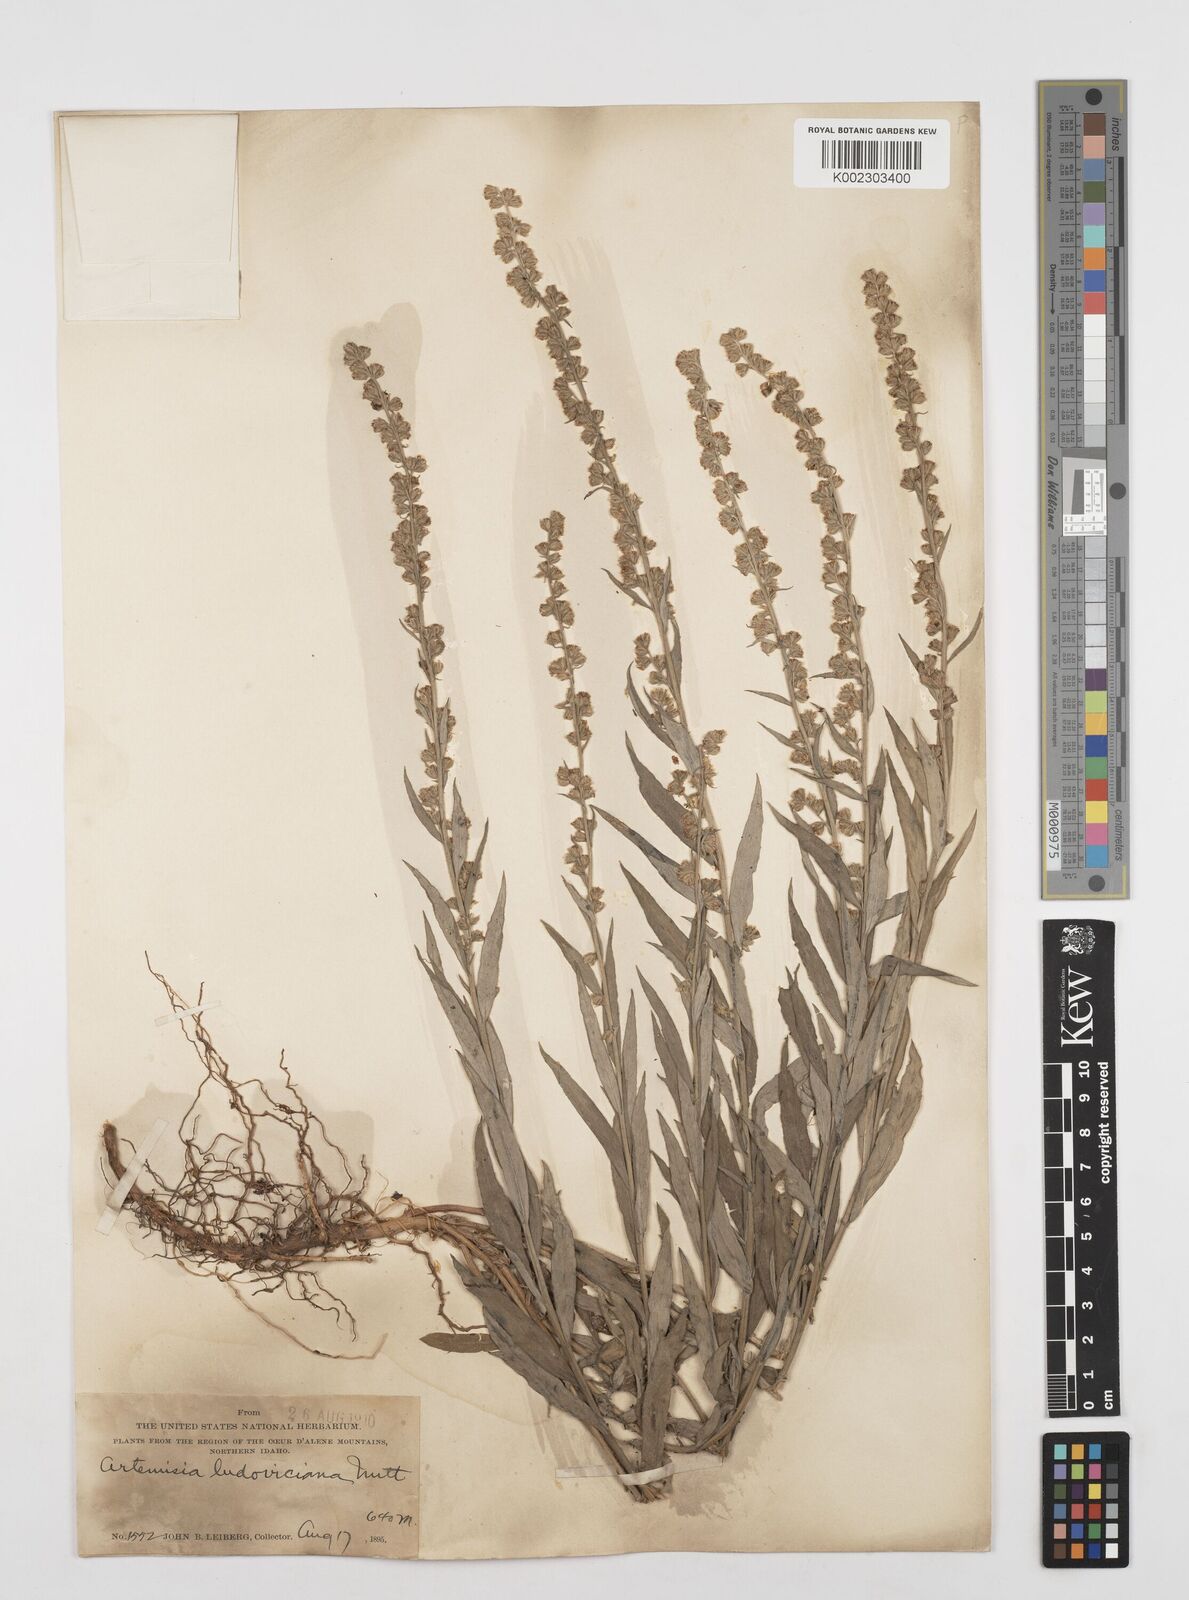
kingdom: Plantae
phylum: Tracheophyta
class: Magnoliopsida
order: Asterales
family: Asteraceae
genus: Artemisia
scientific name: Artemisia
